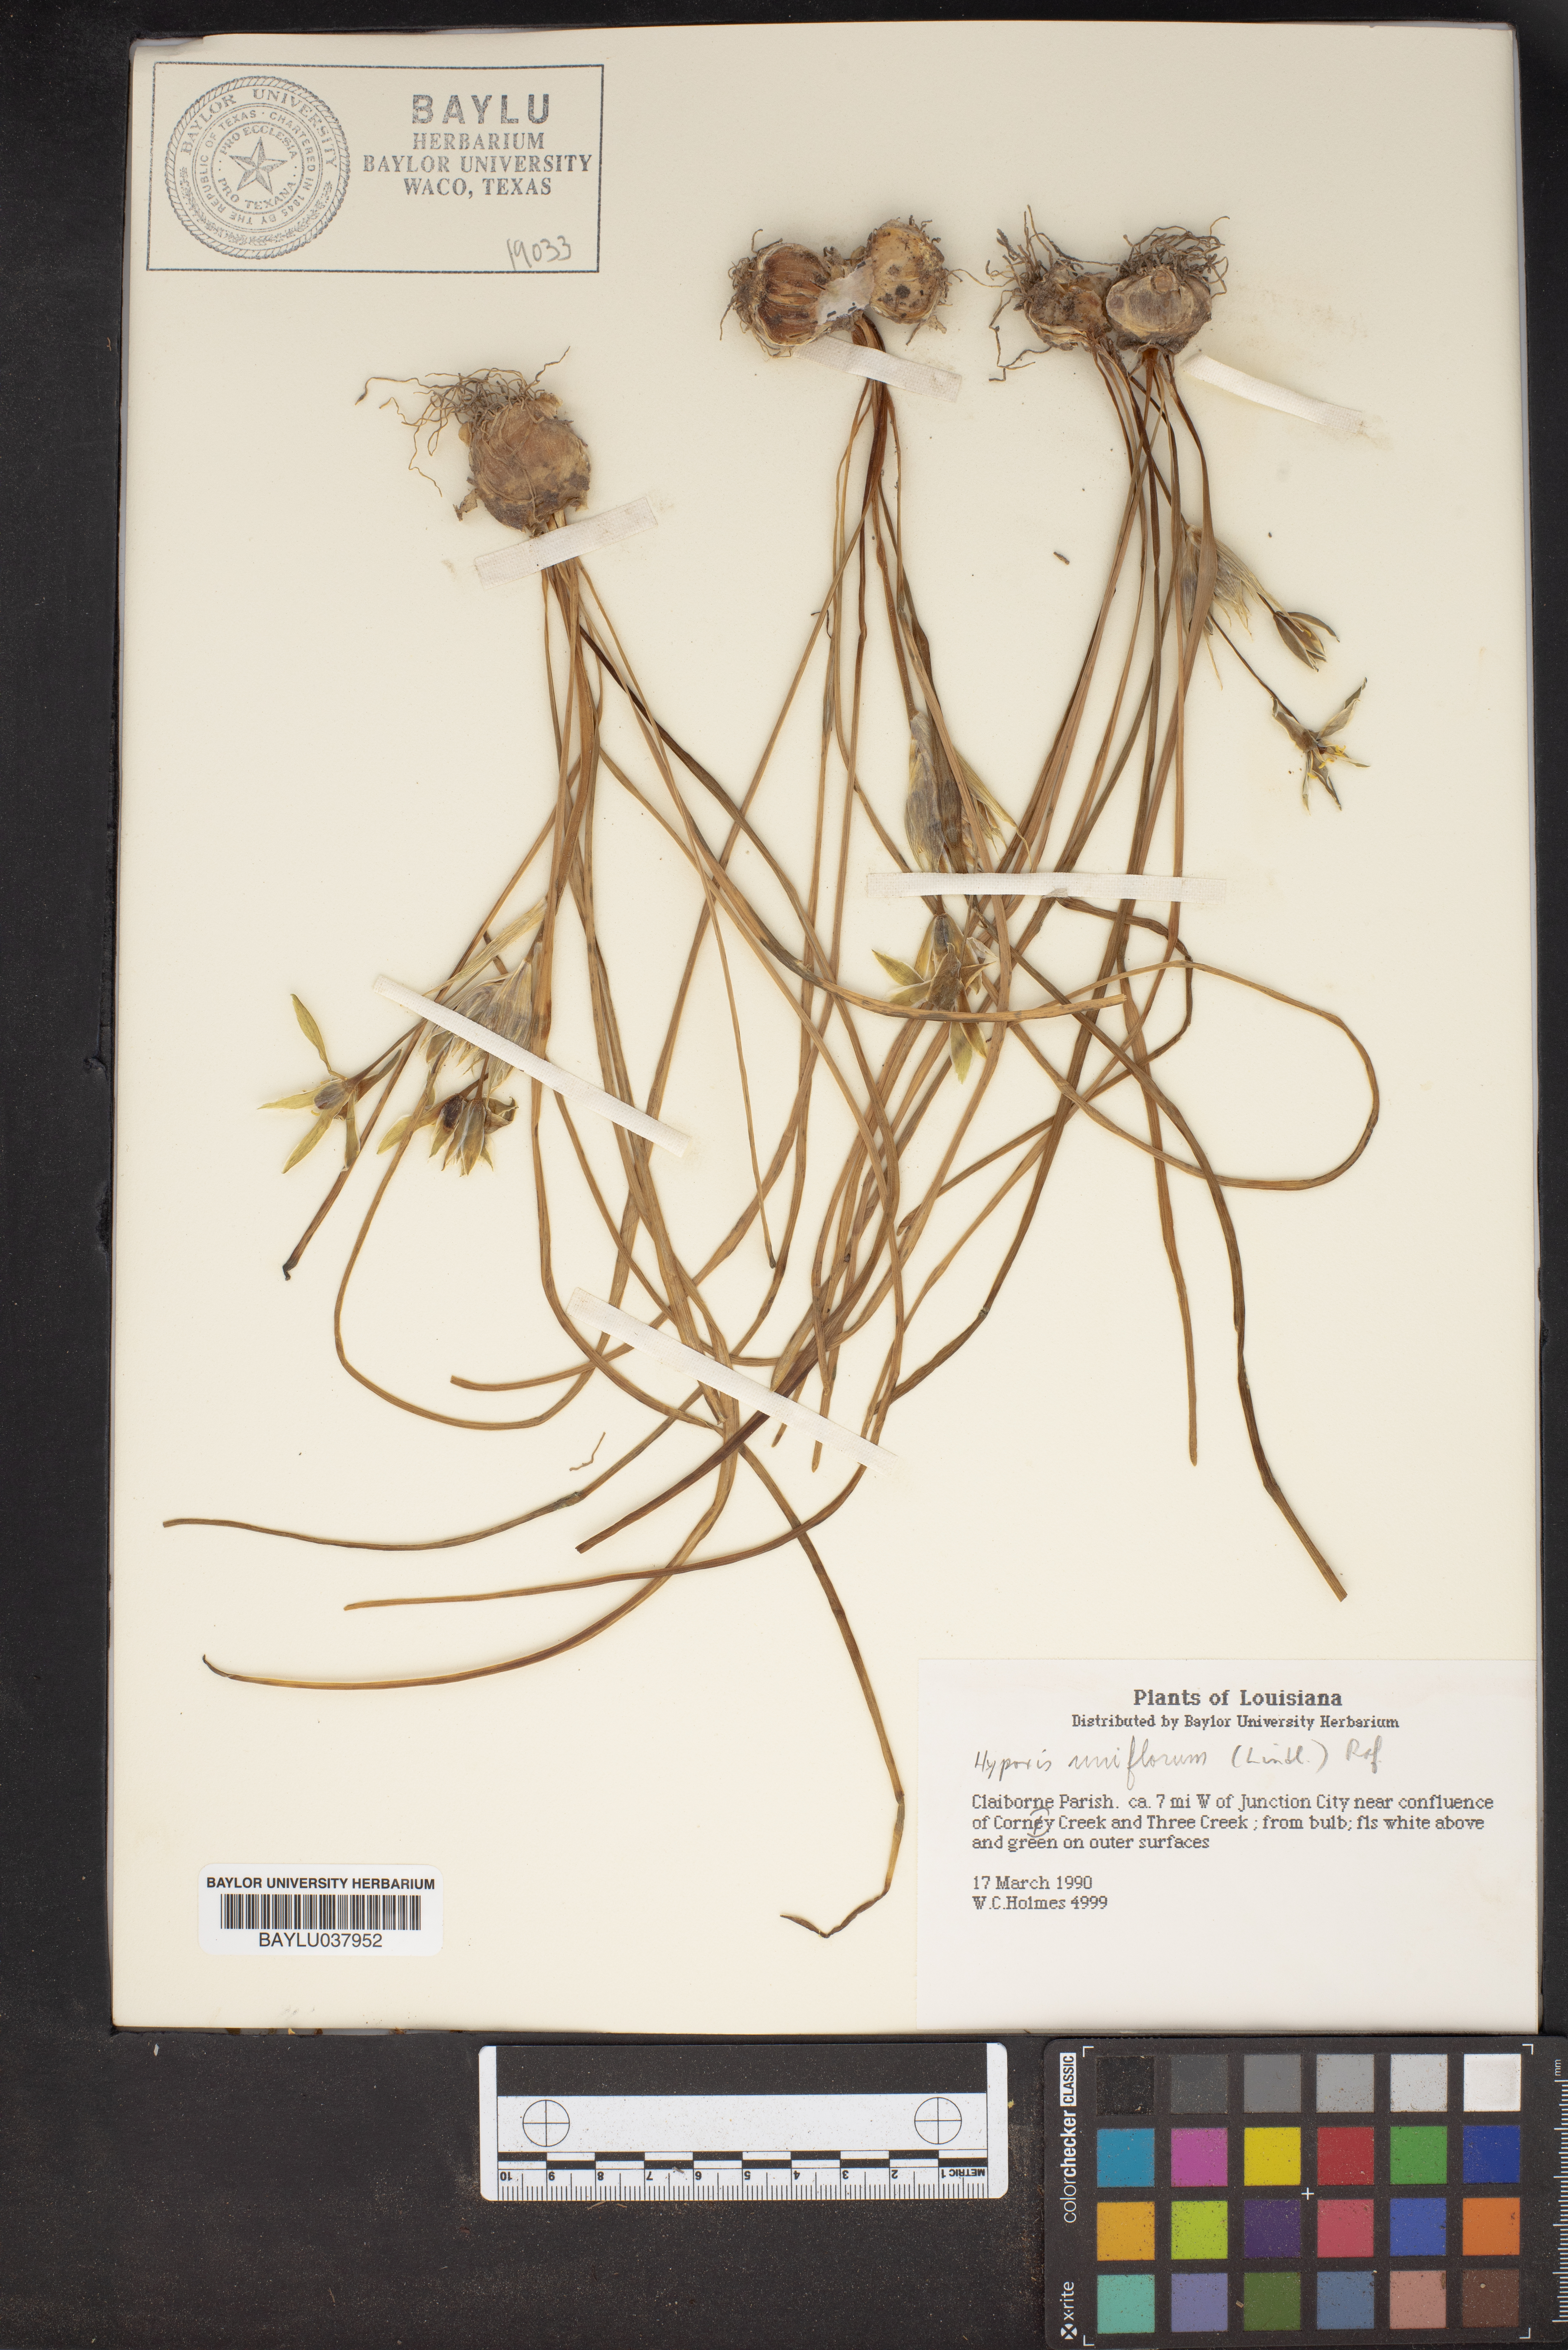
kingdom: Plantae
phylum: Tracheophyta
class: Liliopsida
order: Asparagales
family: Hypoxidaceae
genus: Hypoxis
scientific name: Hypoxis
